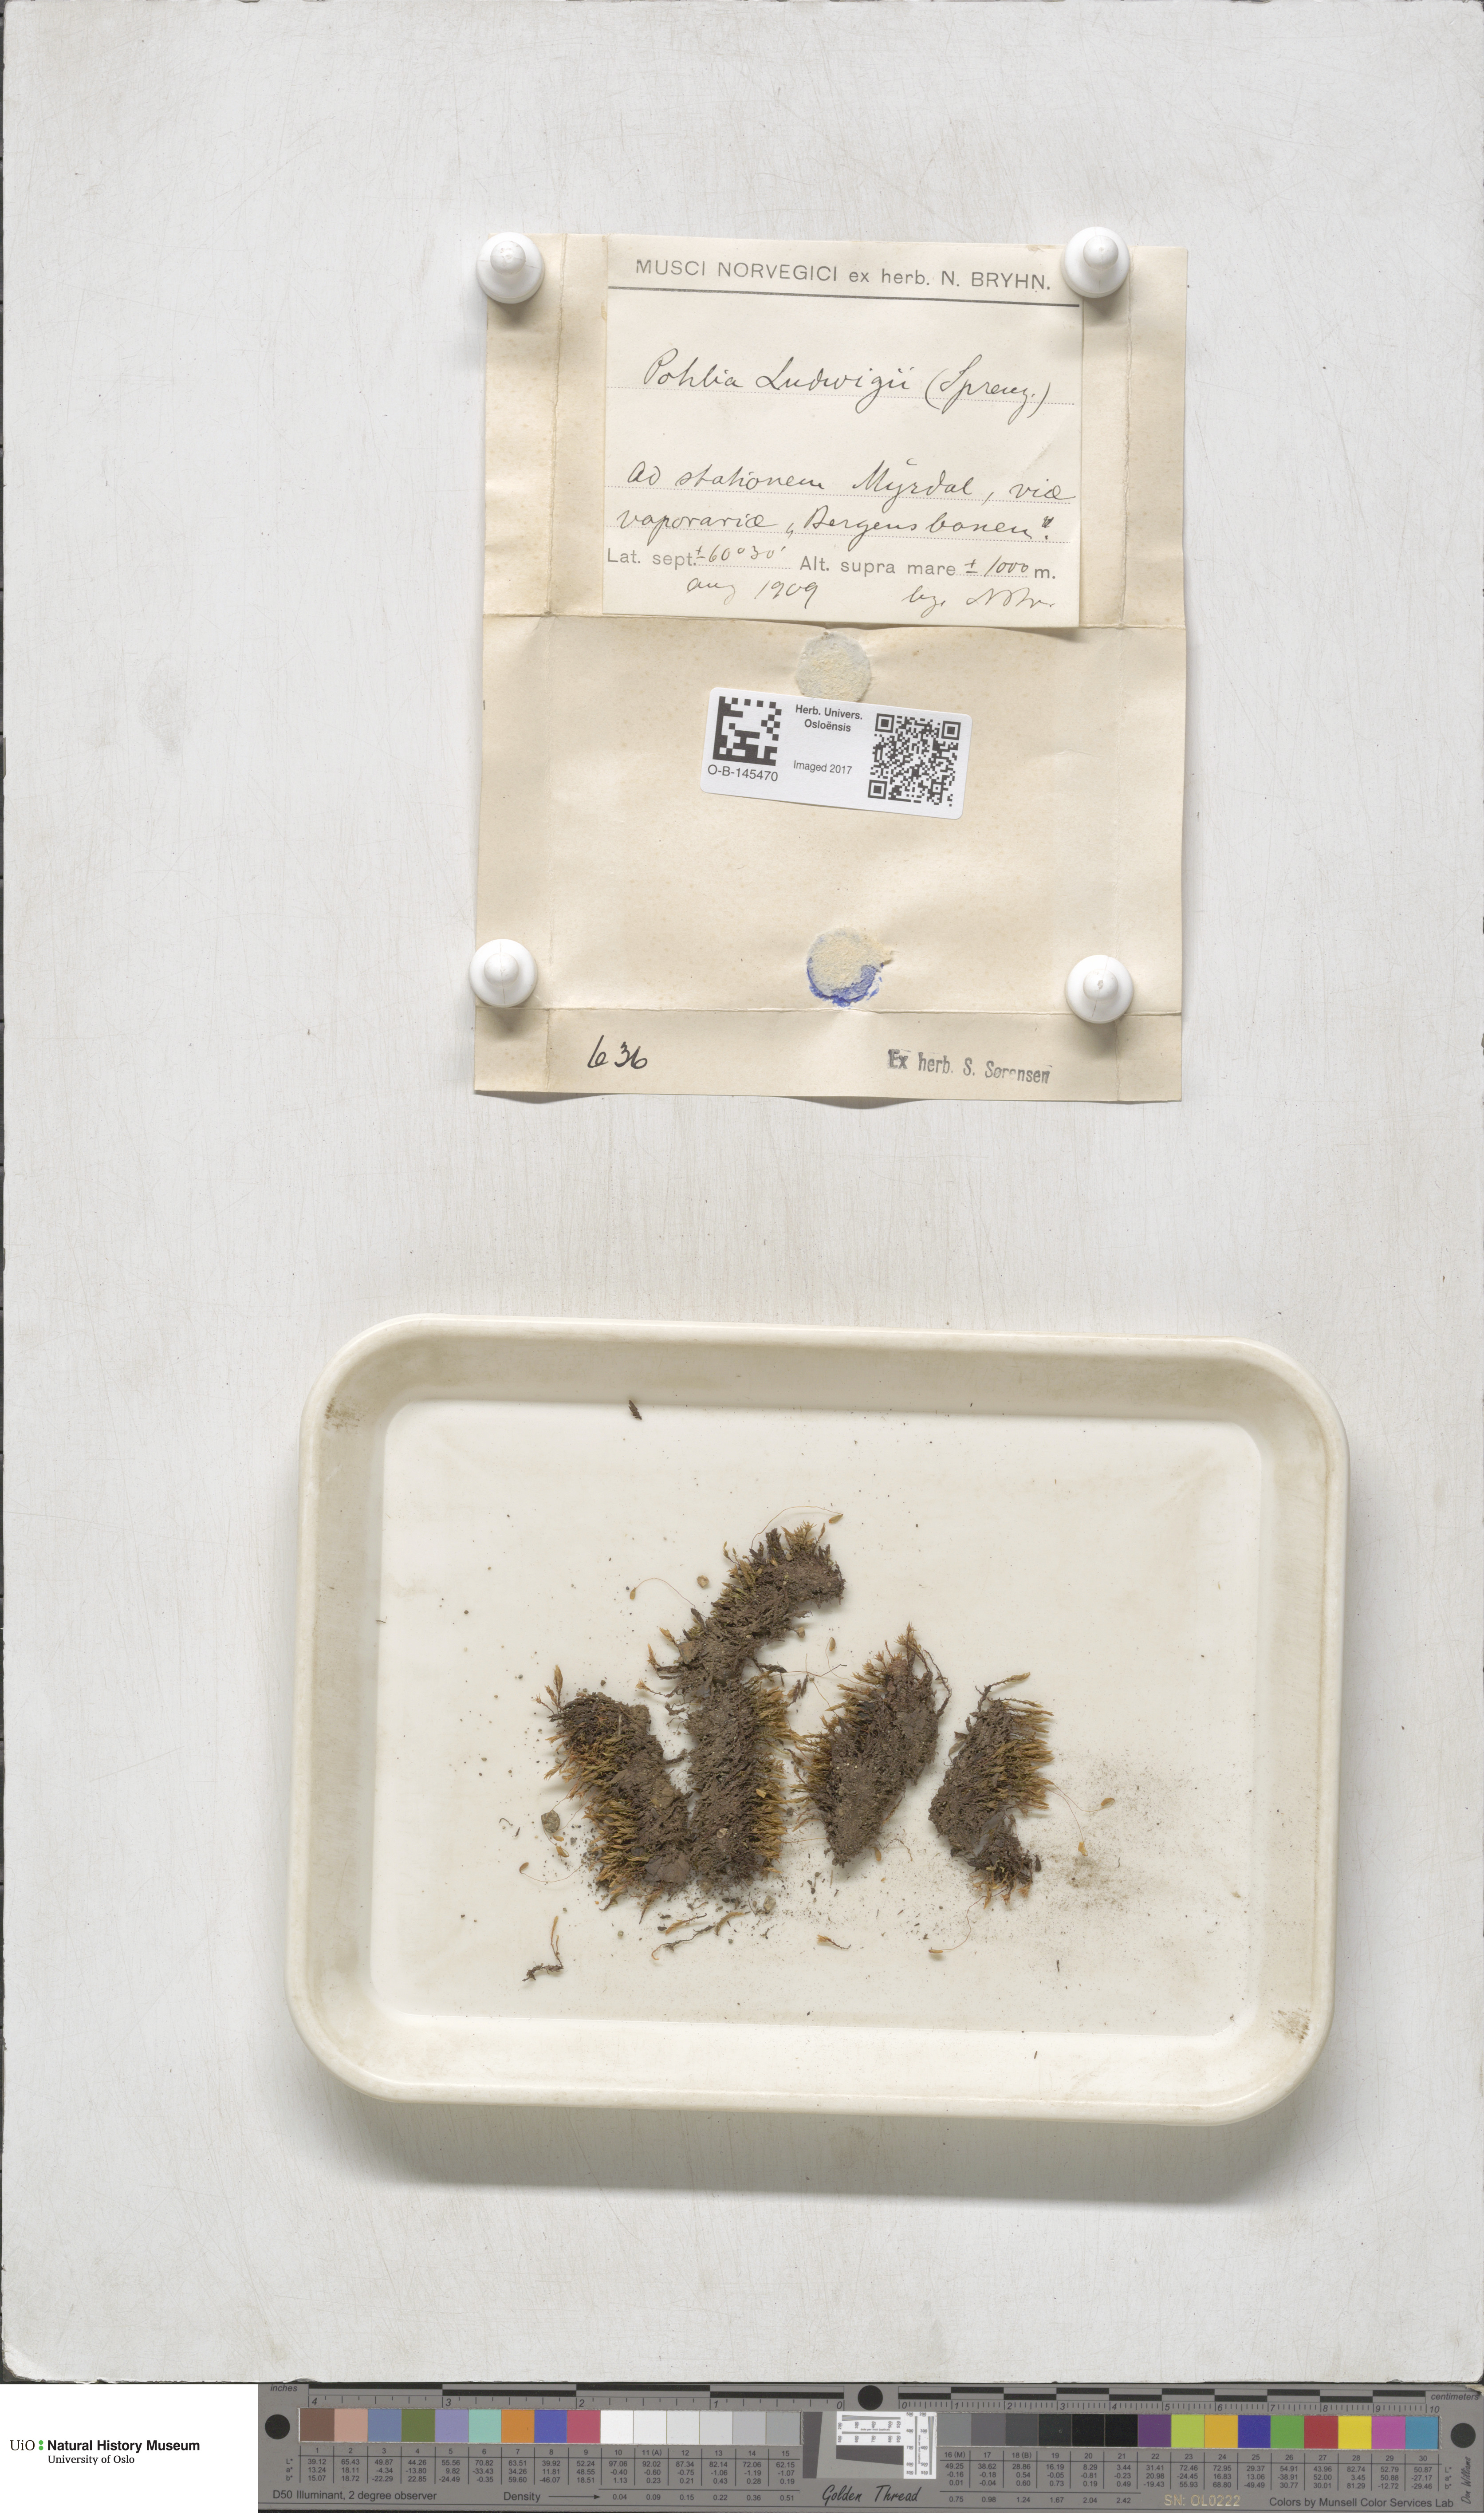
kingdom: Plantae
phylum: Bryophyta
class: Bryopsida
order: Bryales
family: Mniaceae
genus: Pohlia
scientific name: Pohlia ludwigii
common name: Ludwig's thread-moss
